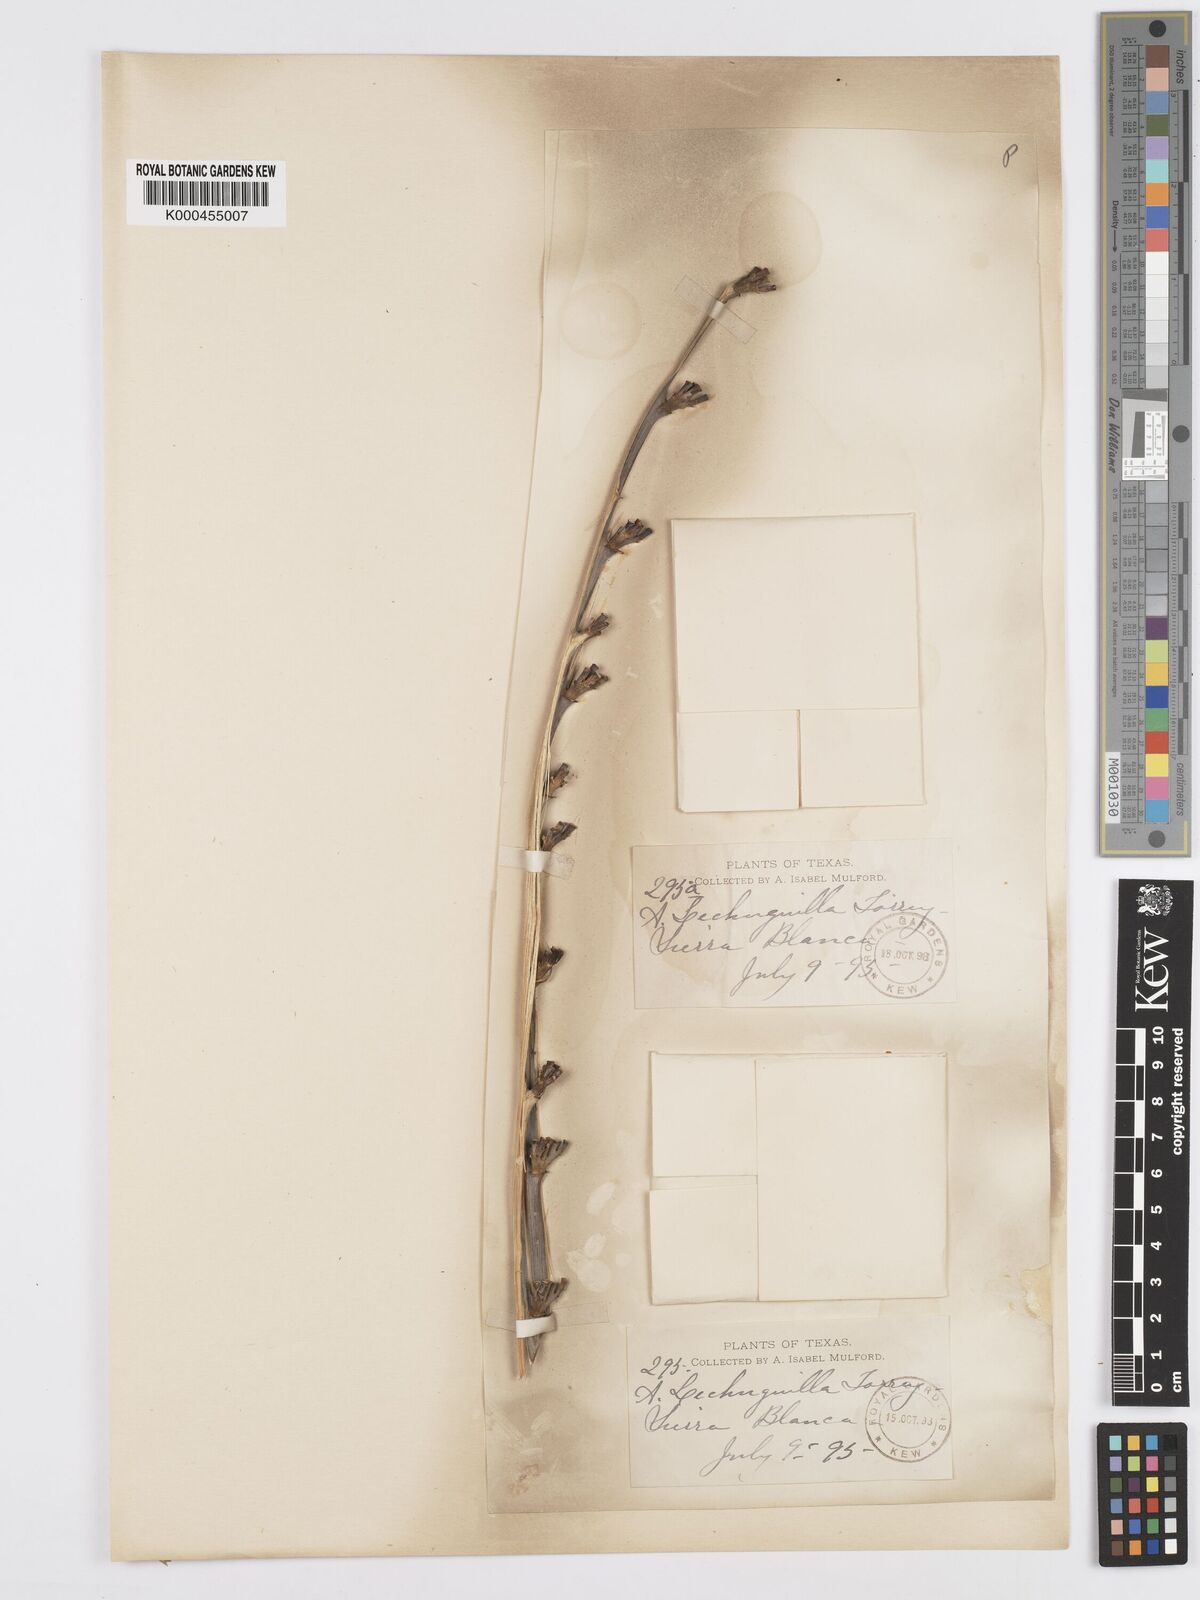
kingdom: Plantae
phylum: Tracheophyta
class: Liliopsida
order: Asparagales
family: Asparagaceae
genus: Agave
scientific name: Agave lechuguilla
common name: Lecheguilla agave
